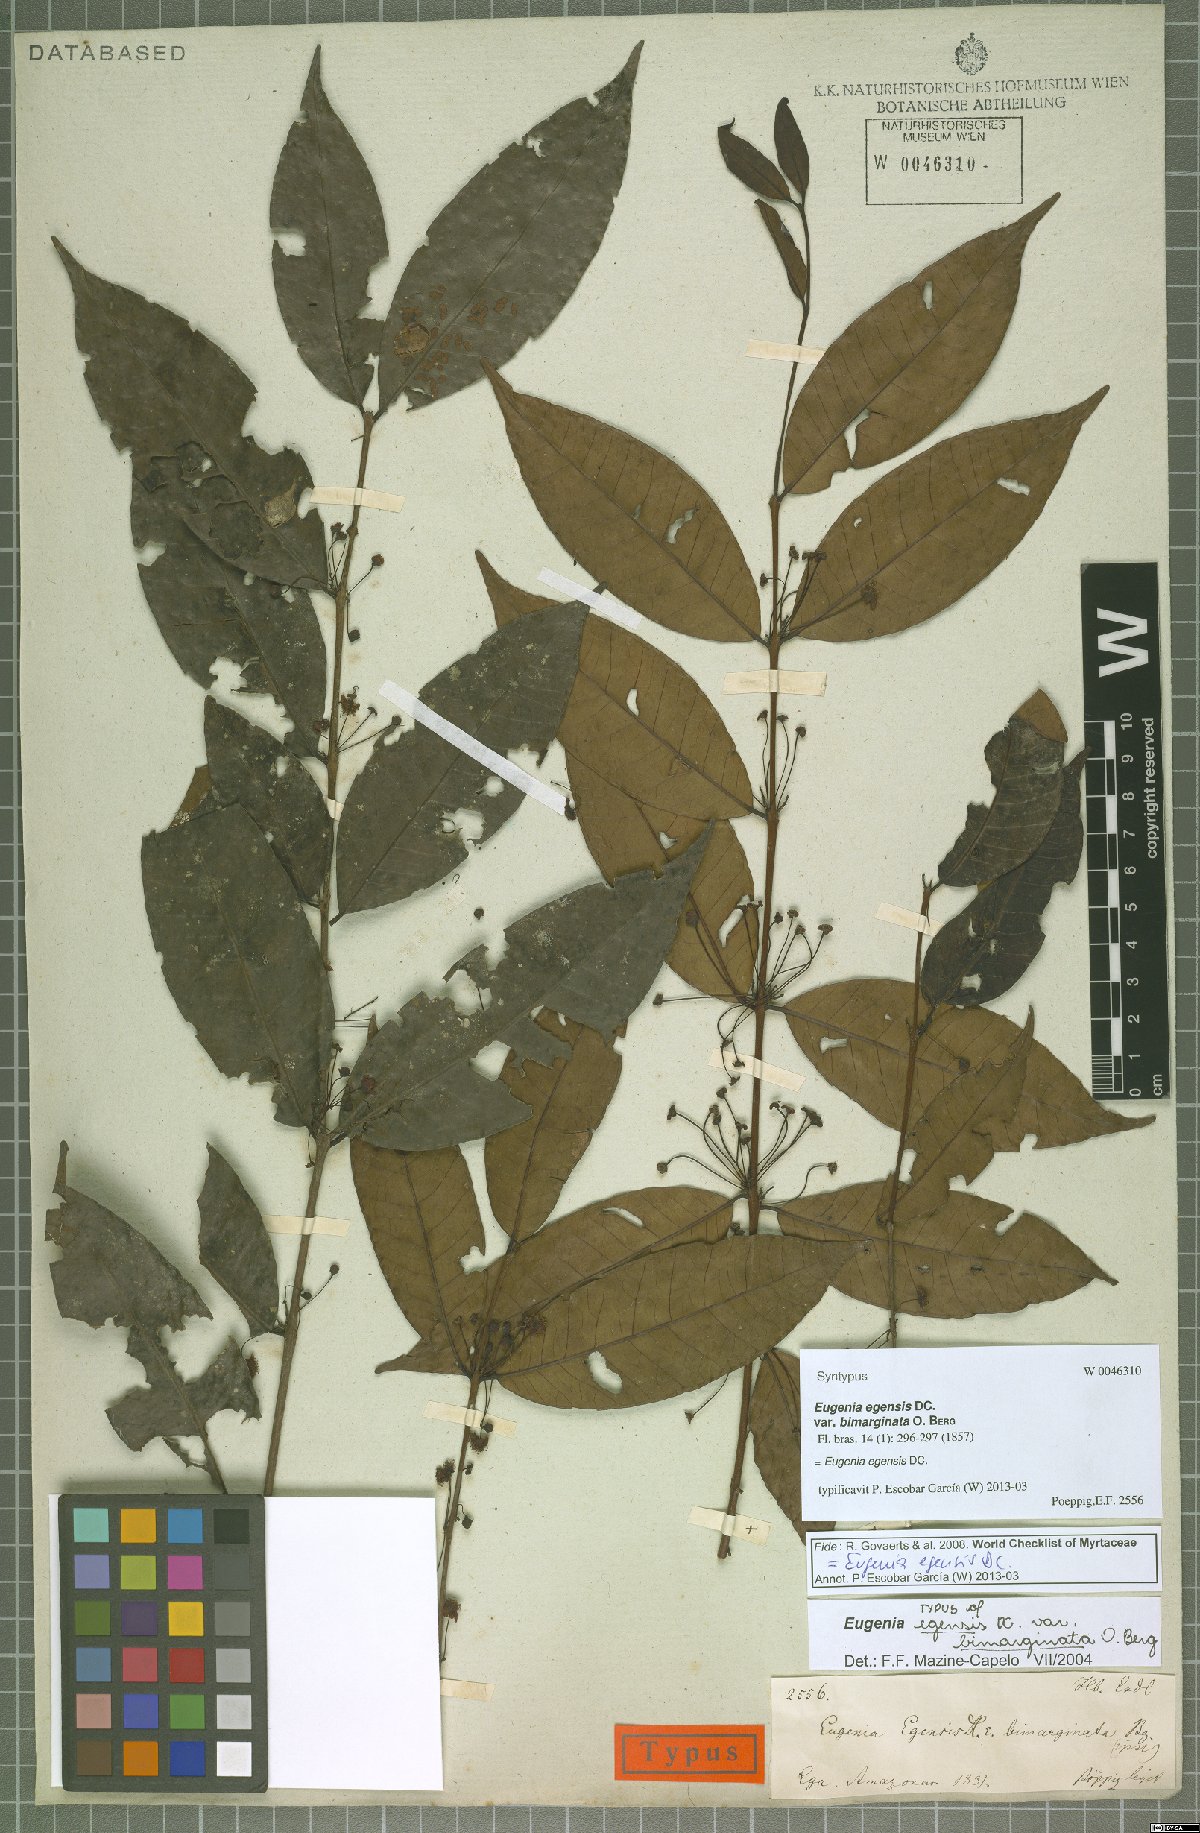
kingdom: Plantae
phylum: Tracheophyta
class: Magnoliopsida
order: Myrtales
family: Myrtaceae
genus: Eugenia
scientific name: Eugenia egensis
